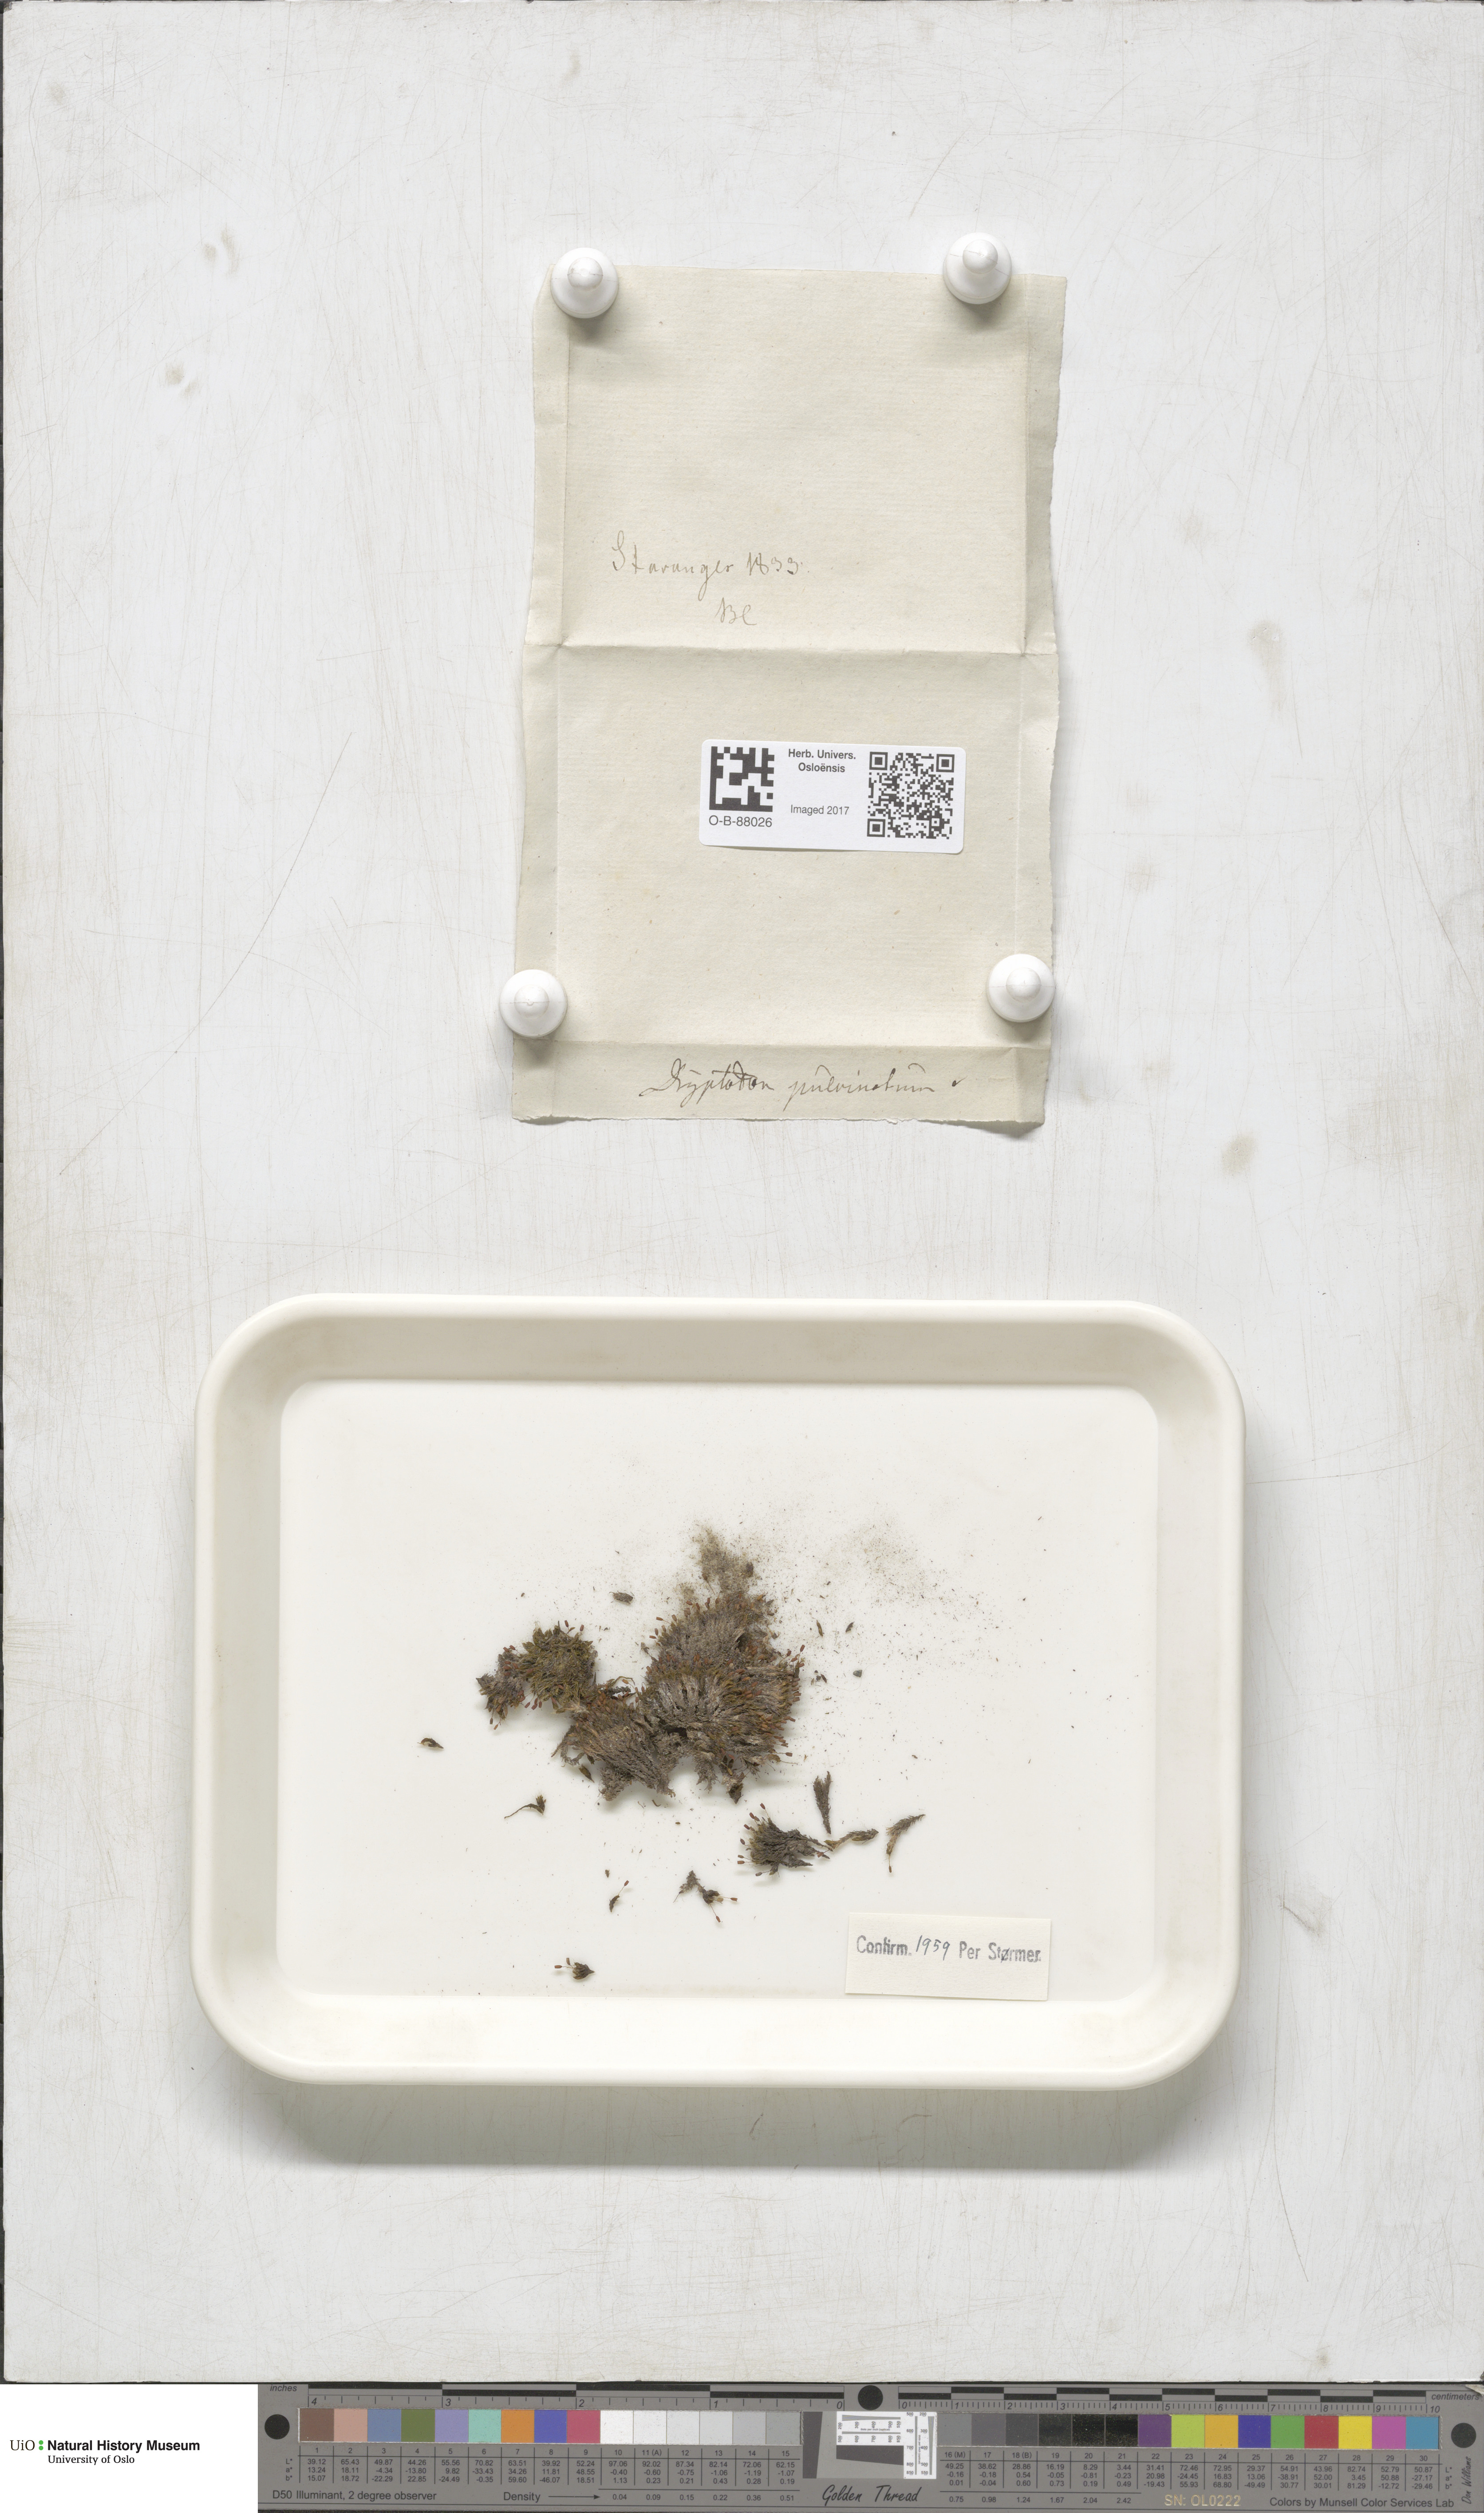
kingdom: Plantae
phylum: Bryophyta
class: Bryopsida
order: Grimmiales
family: Grimmiaceae
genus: Grimmia
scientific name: Grimmia pulvinata
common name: Grey-cushioned grimmia
